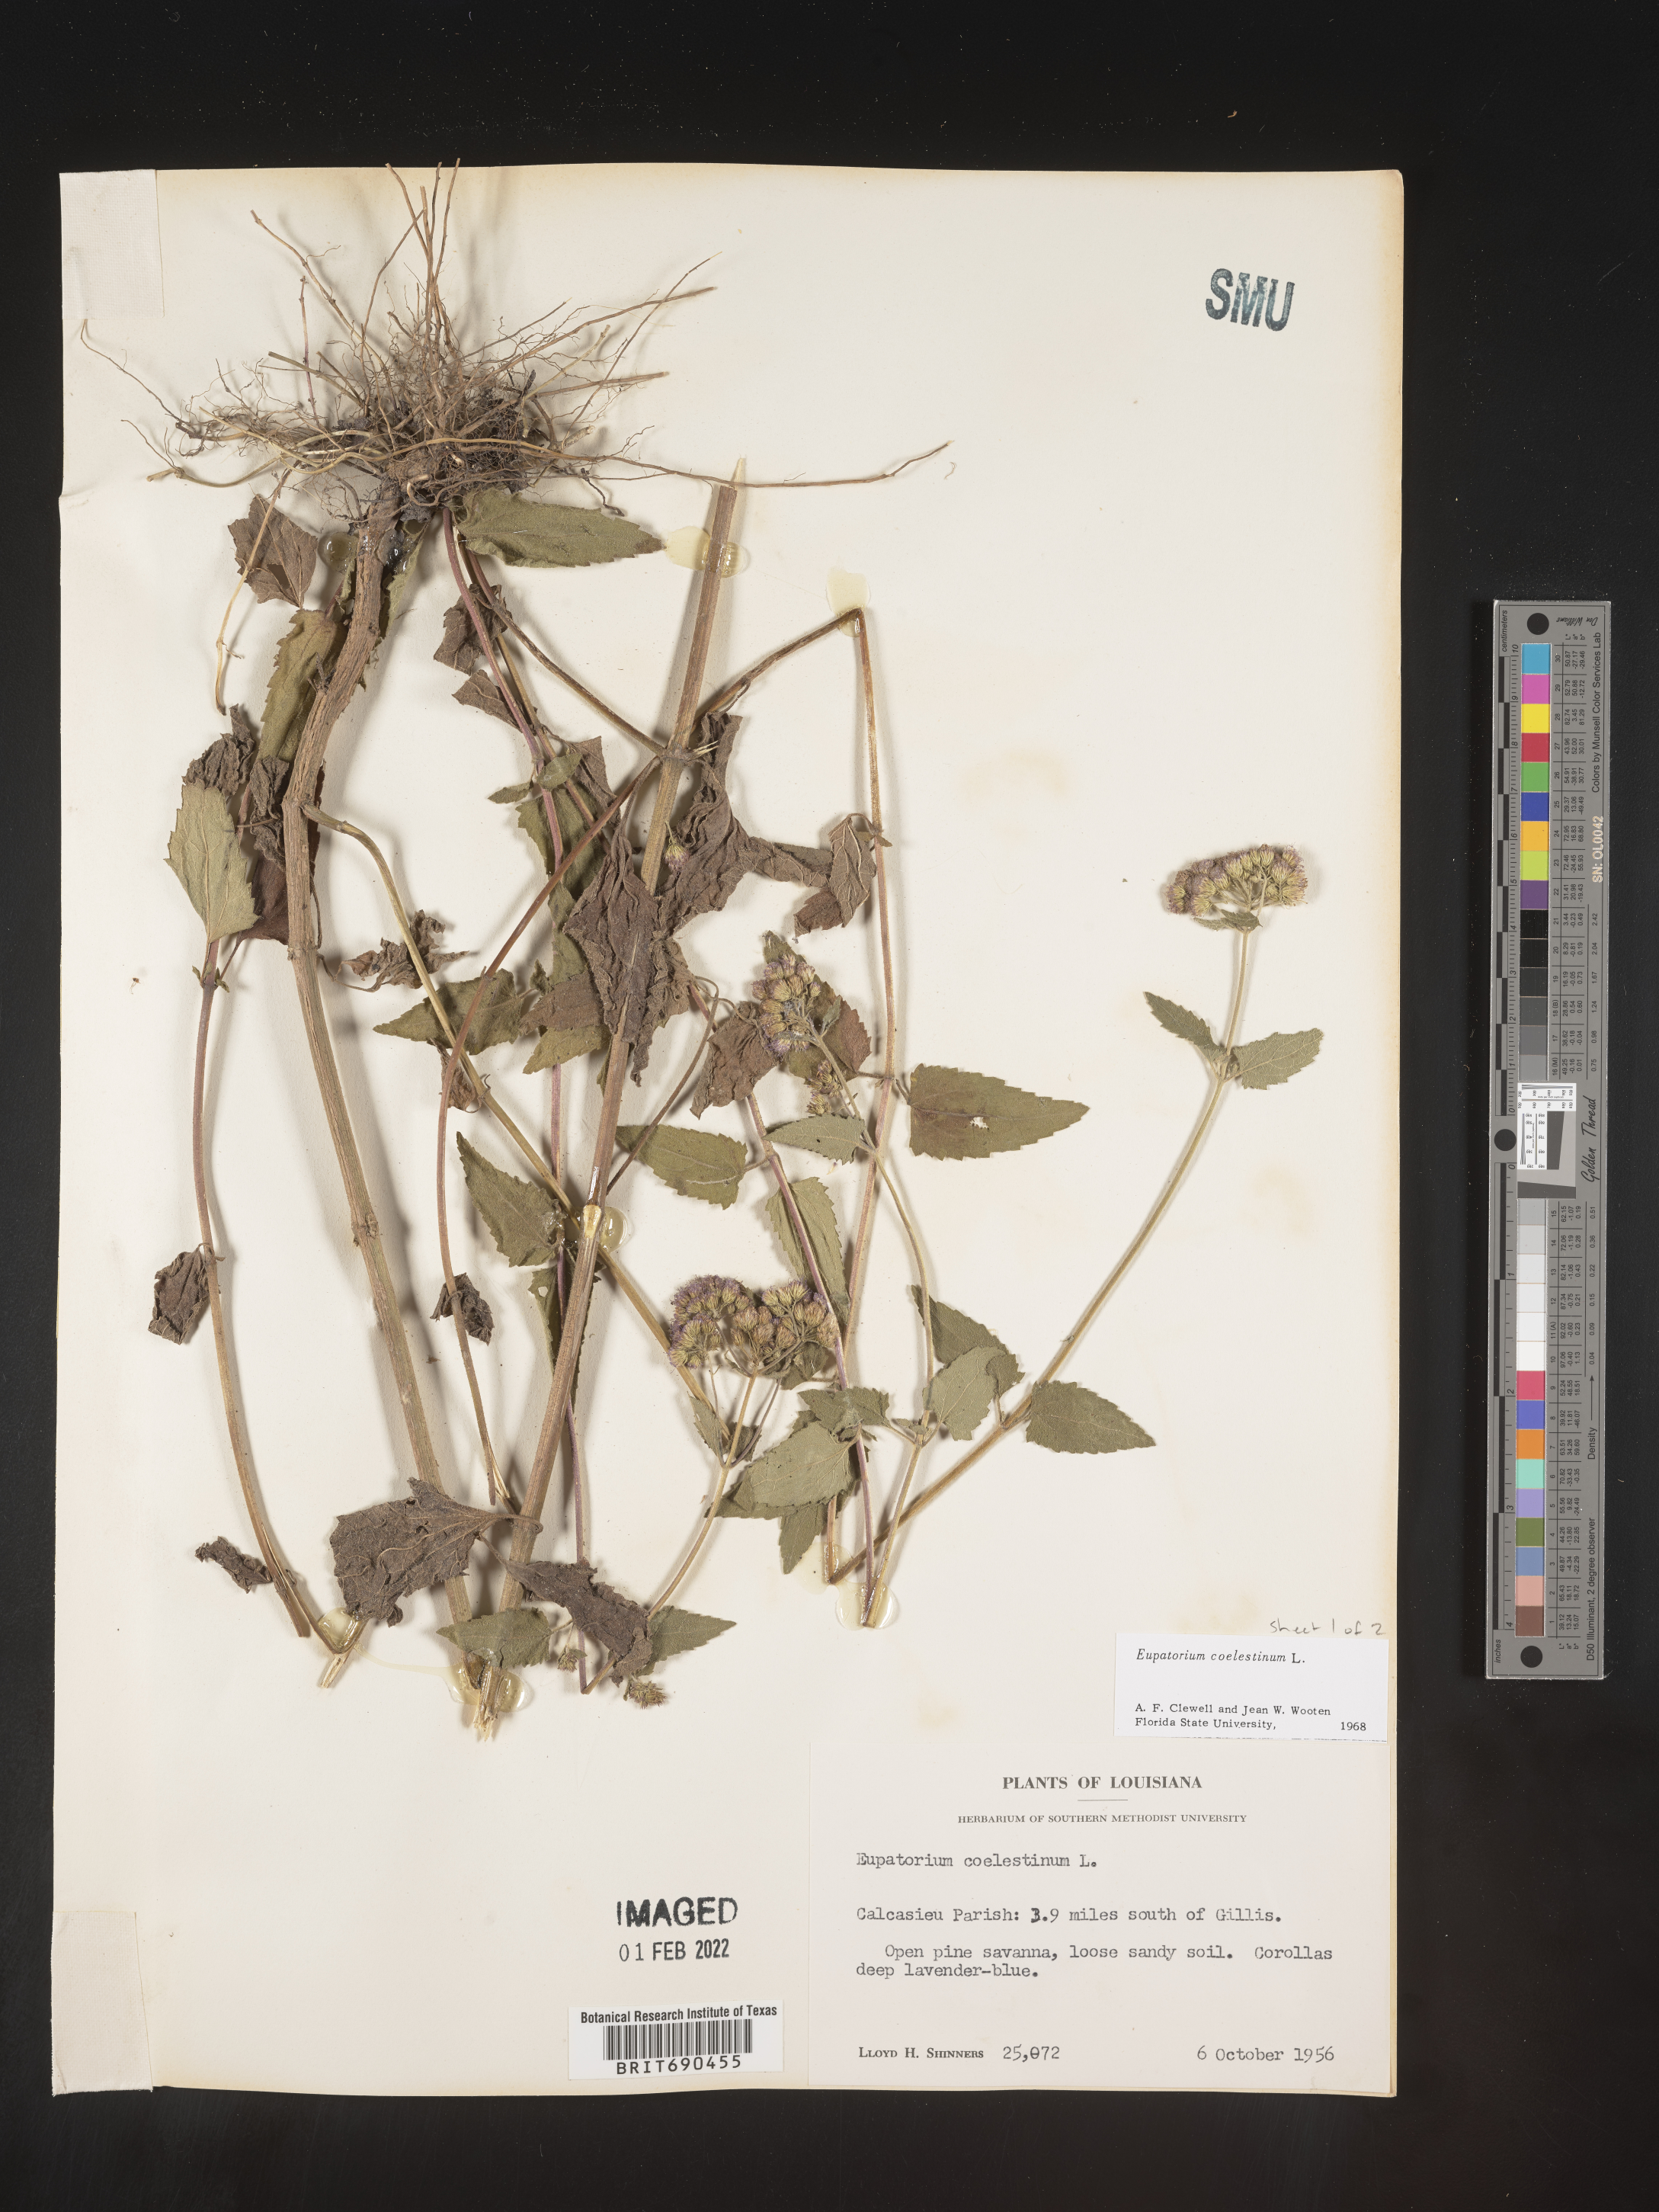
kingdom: Plantae
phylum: Tracheophyta
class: Magnoliopsida
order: Asterales
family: Asteraceae
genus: Conoclinium
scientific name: Conoclinium coelestinum
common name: Blue mistflower
